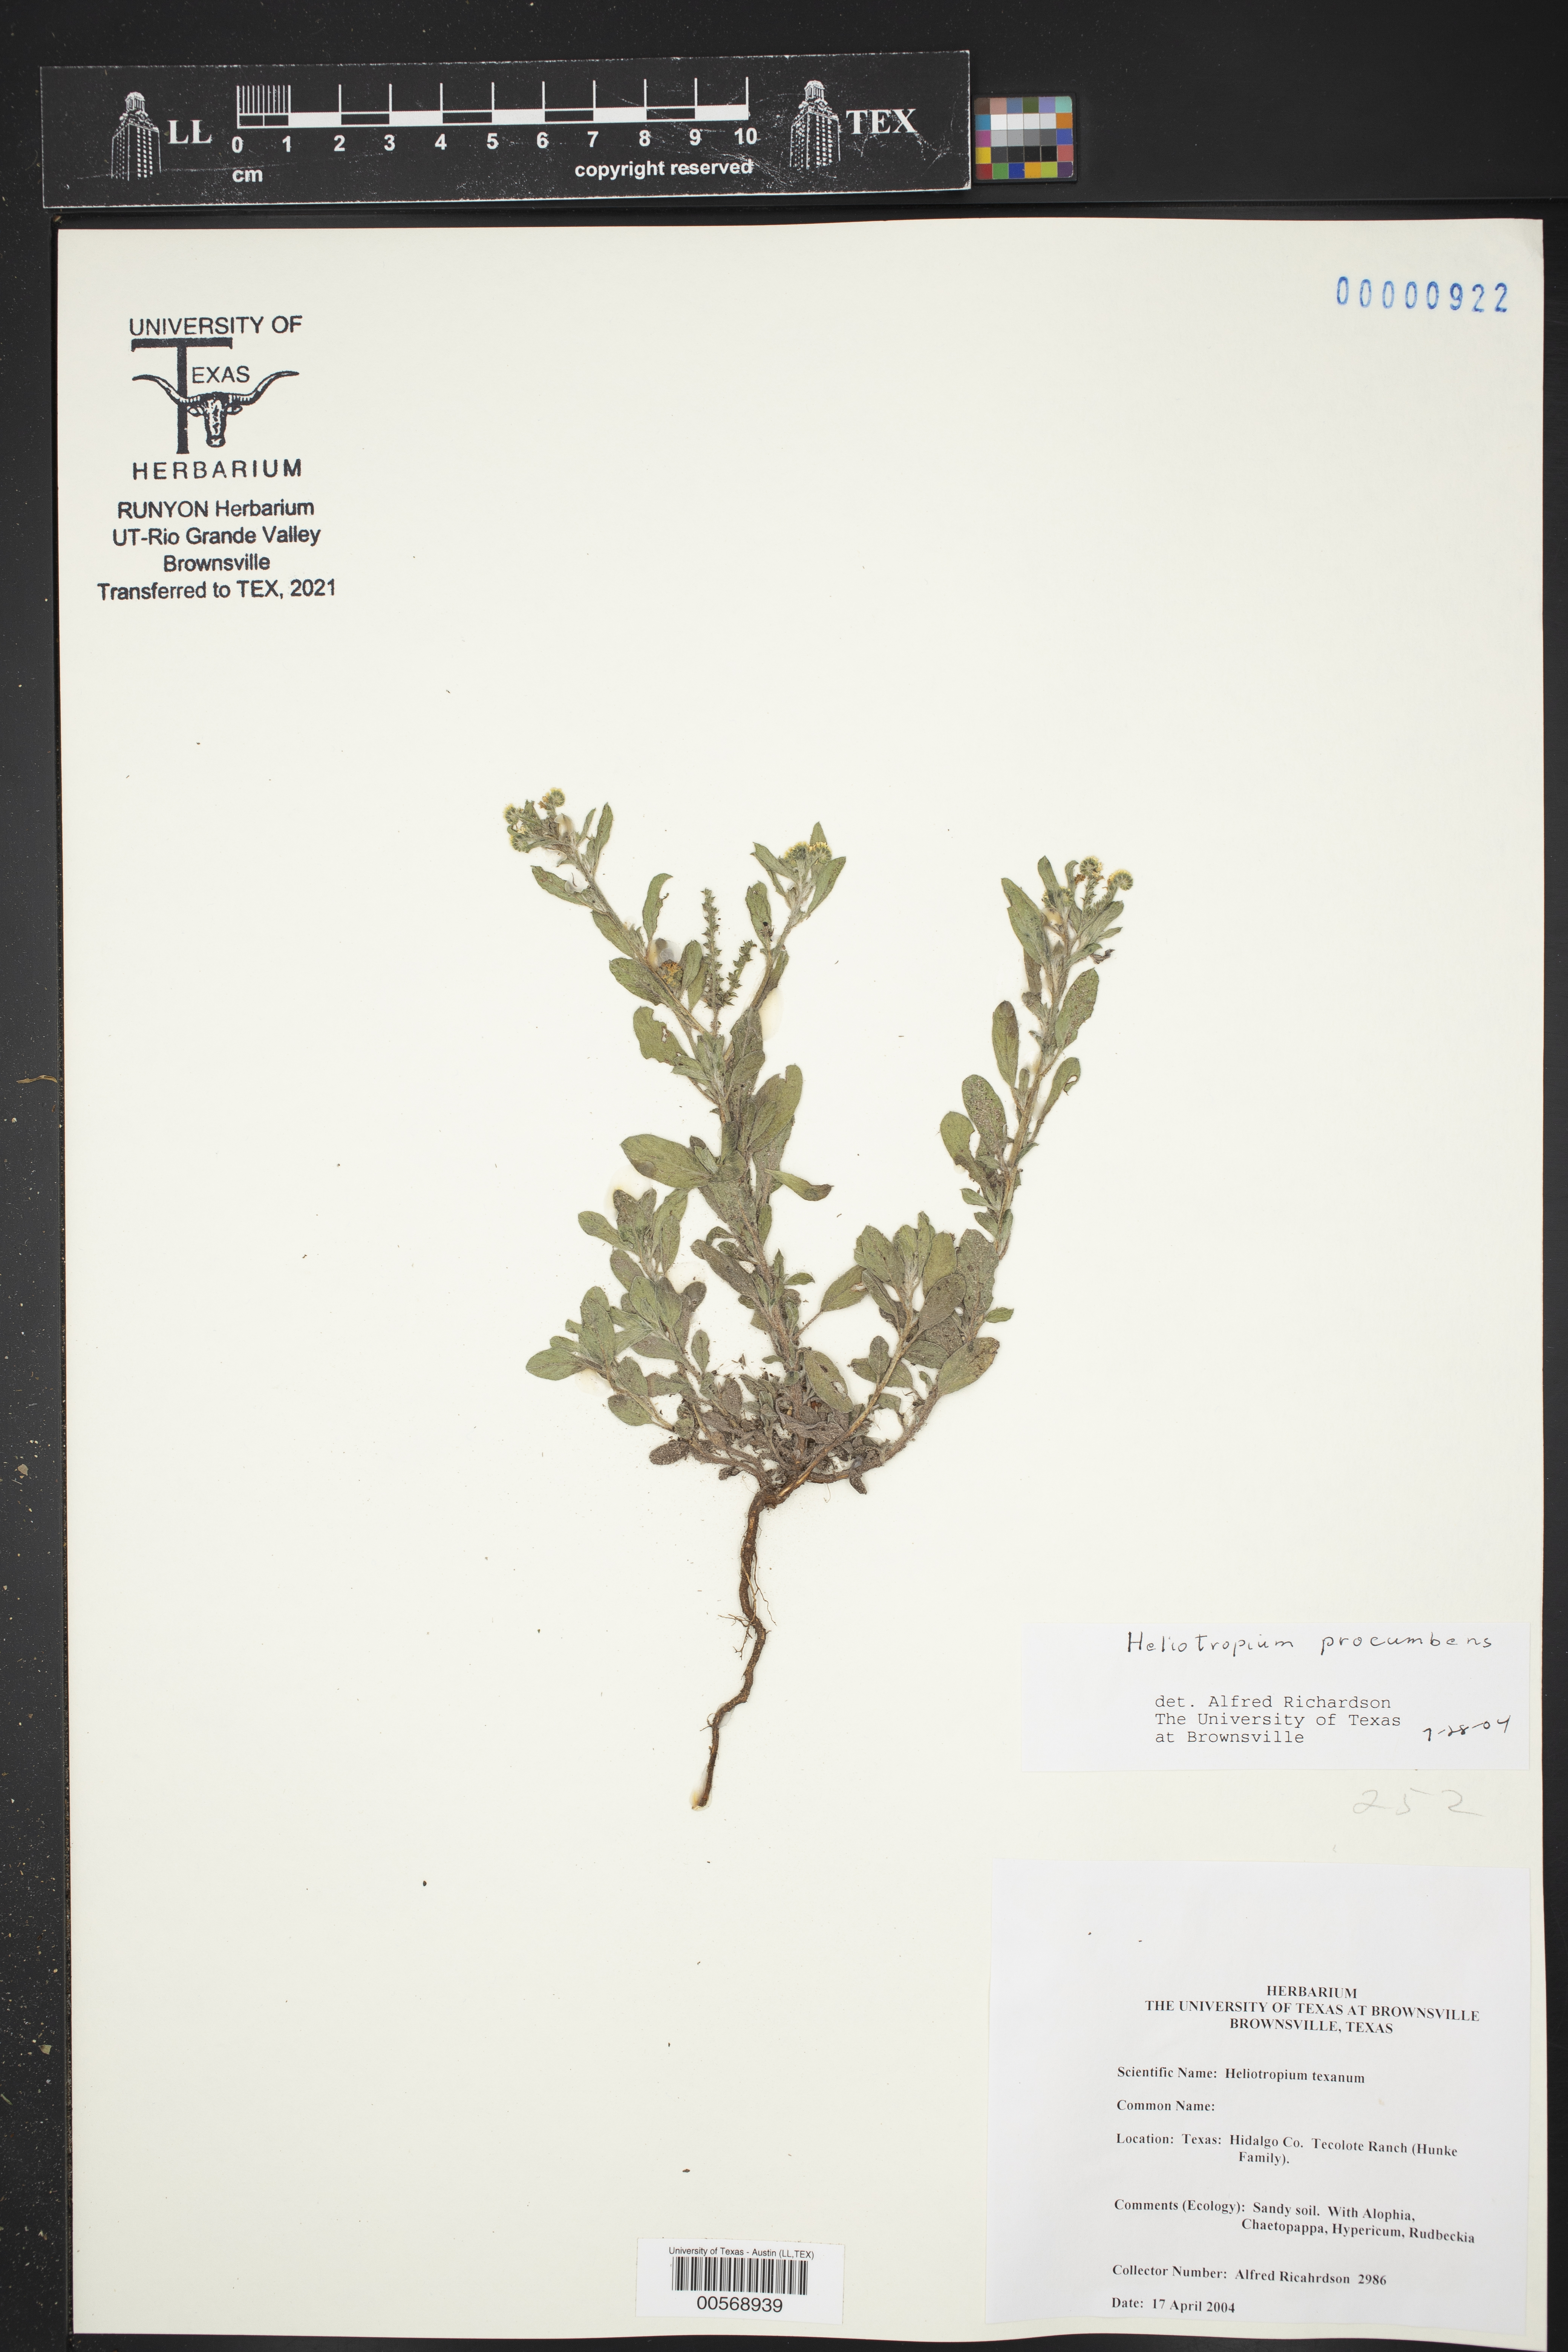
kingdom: Plantae
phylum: Tracheophyta
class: Magnoliopsida
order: Boraginales
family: Heliotropiaceae
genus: Euploca
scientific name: Euploca procumbens
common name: Fourspike heliotrope
